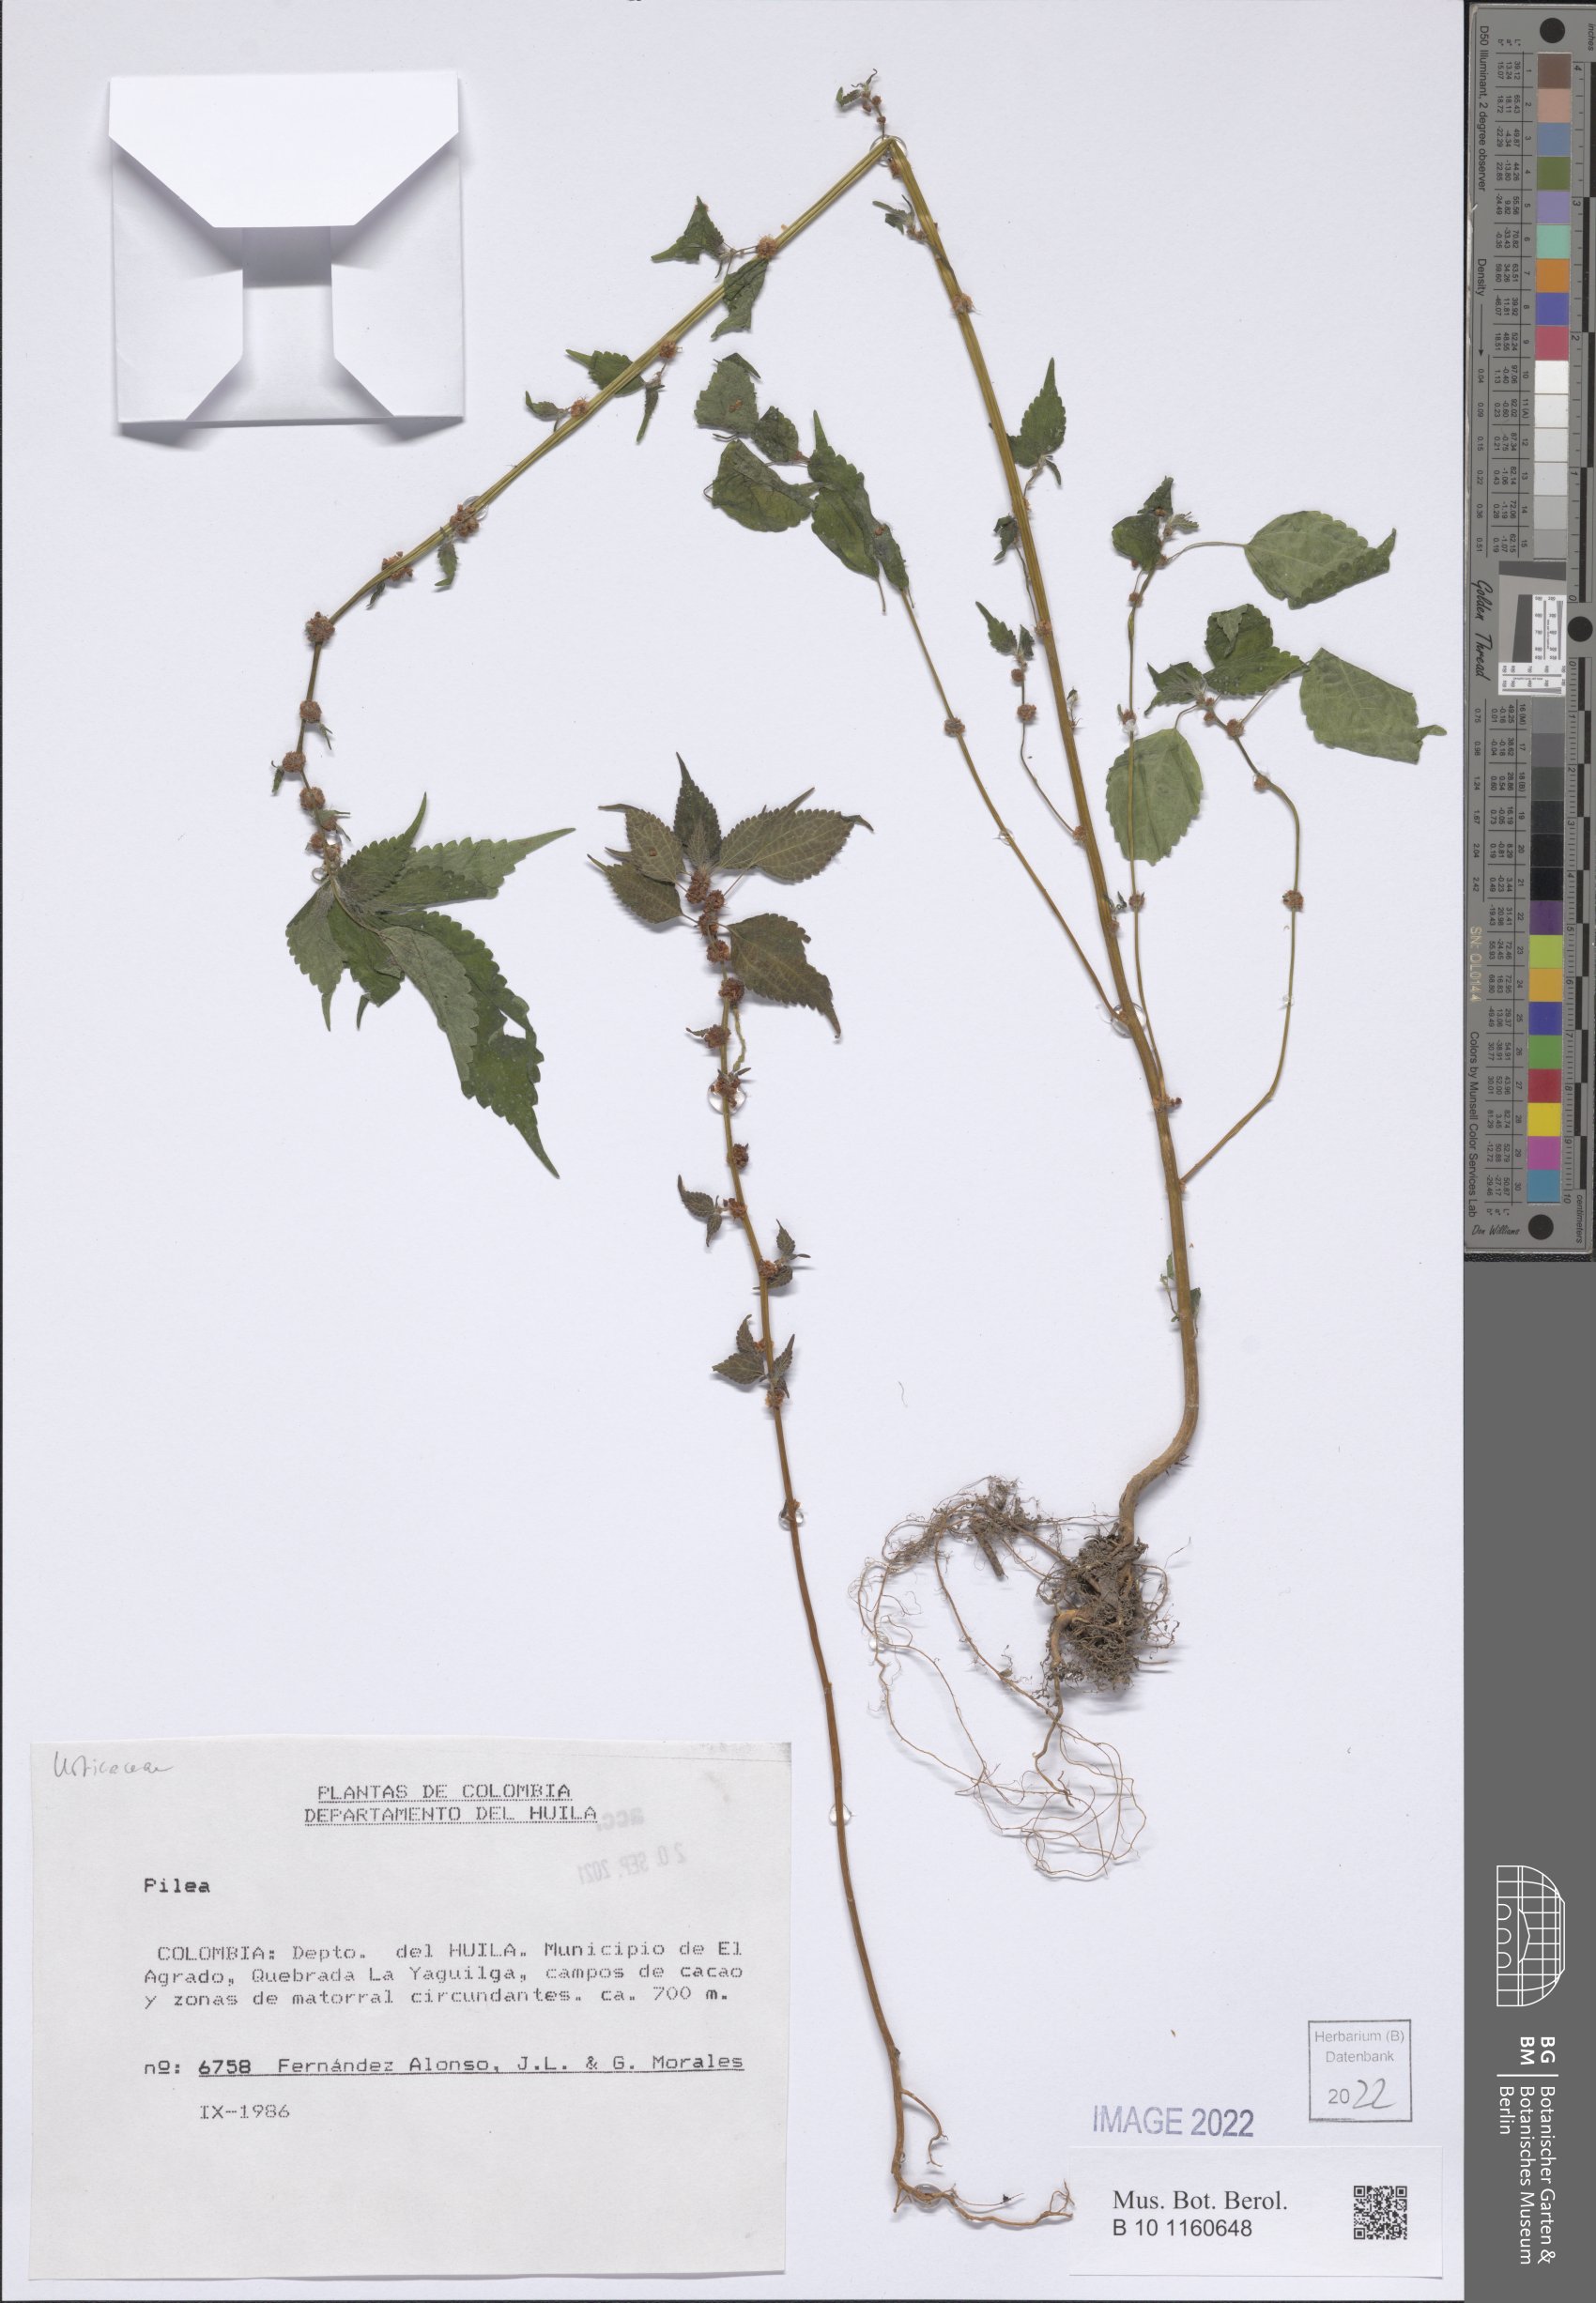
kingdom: Plantae
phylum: Tracheophyta
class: Magnoliopsida
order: Rosales
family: Urticaceae
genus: Pilea
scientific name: Pilea
